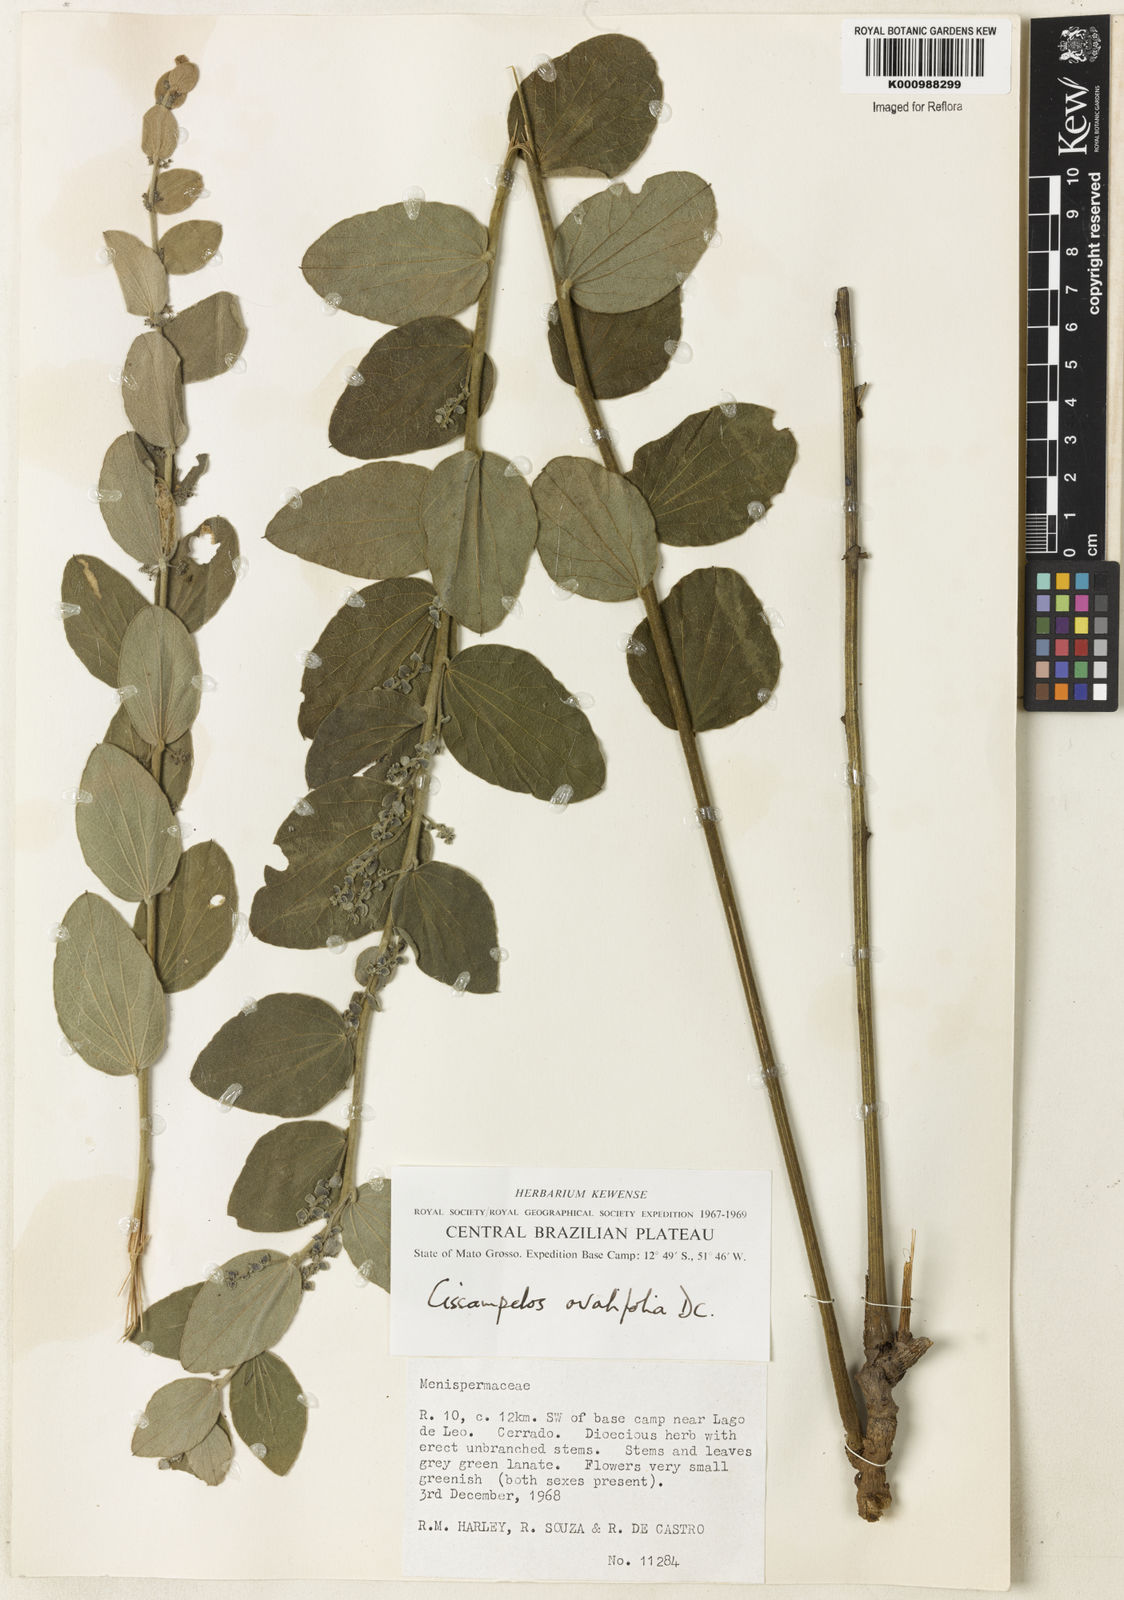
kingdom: Plantae
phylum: Tracheophyta
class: Magnoliopsida
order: Ranunculales
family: Menispermaceae
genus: Cissampelos
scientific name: Cissampelos ovalifolia
